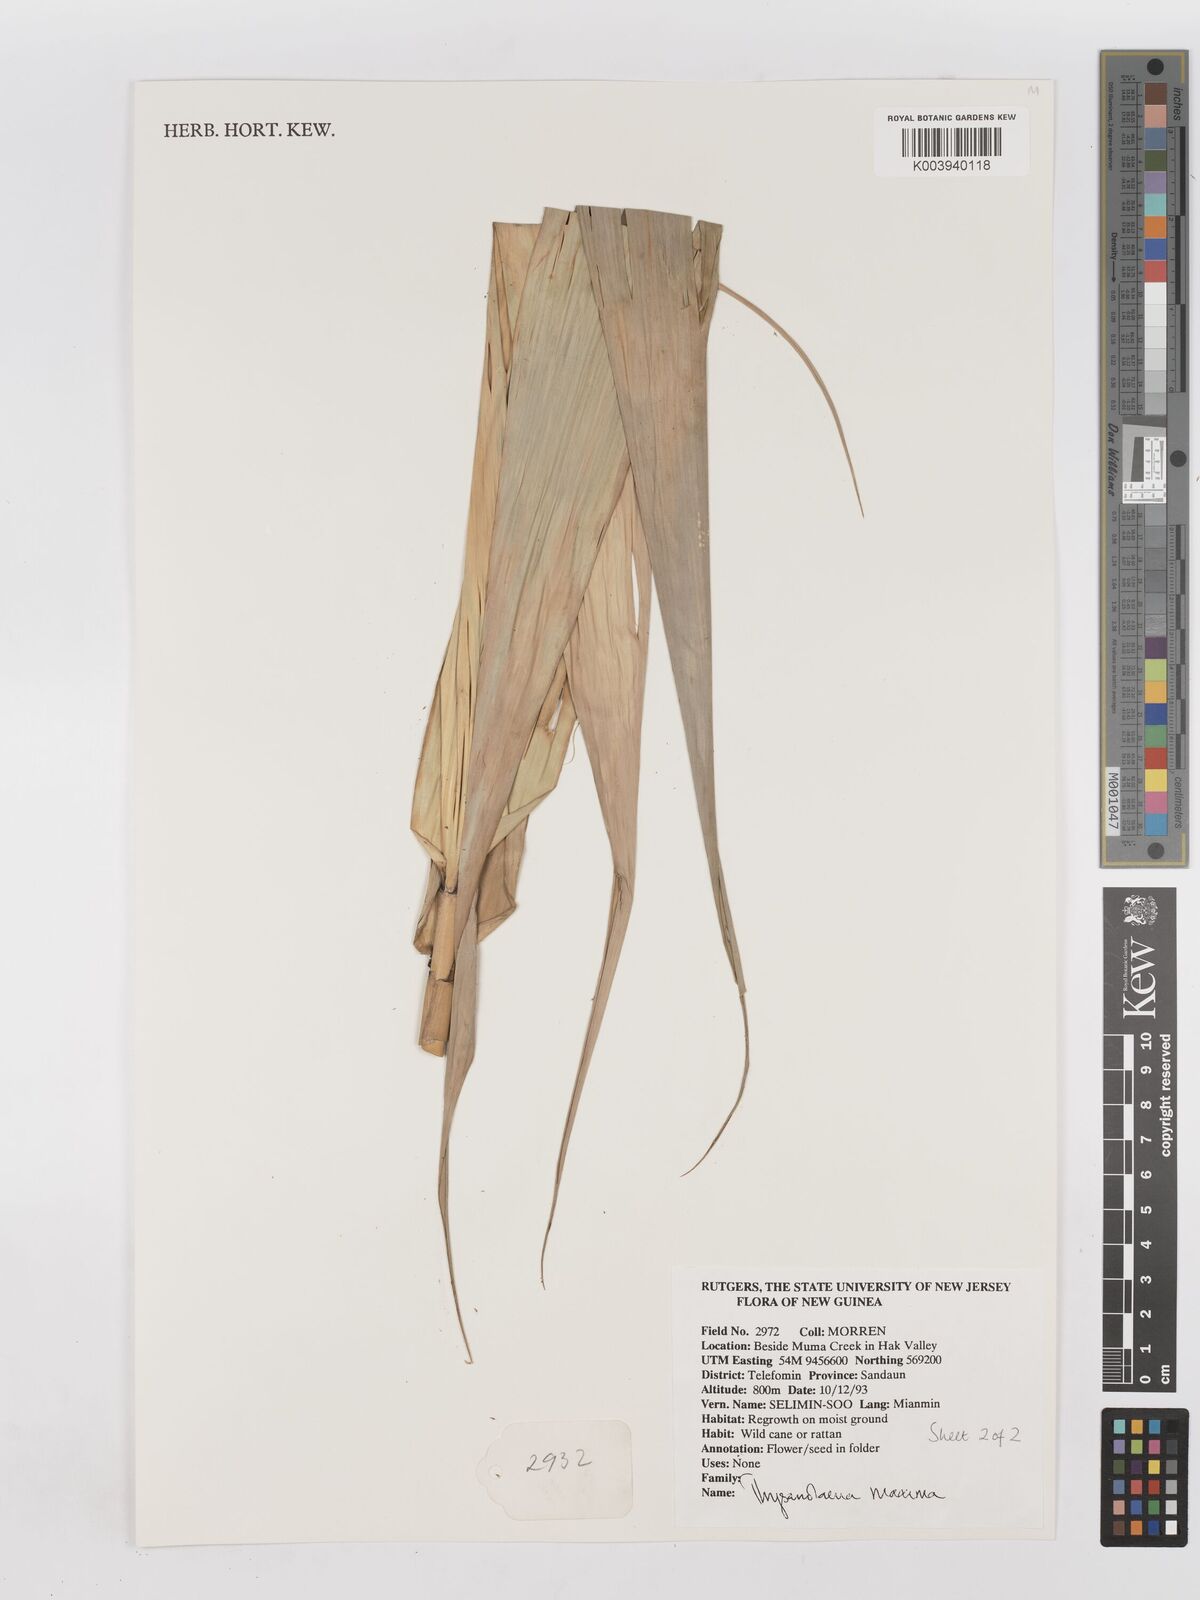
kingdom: Plantae
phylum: Tracheophyta
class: Liliopsida
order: Poales
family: Poaceae
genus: Thysanolaena
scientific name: Thysanolaena latifolia
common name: Tiger grass
